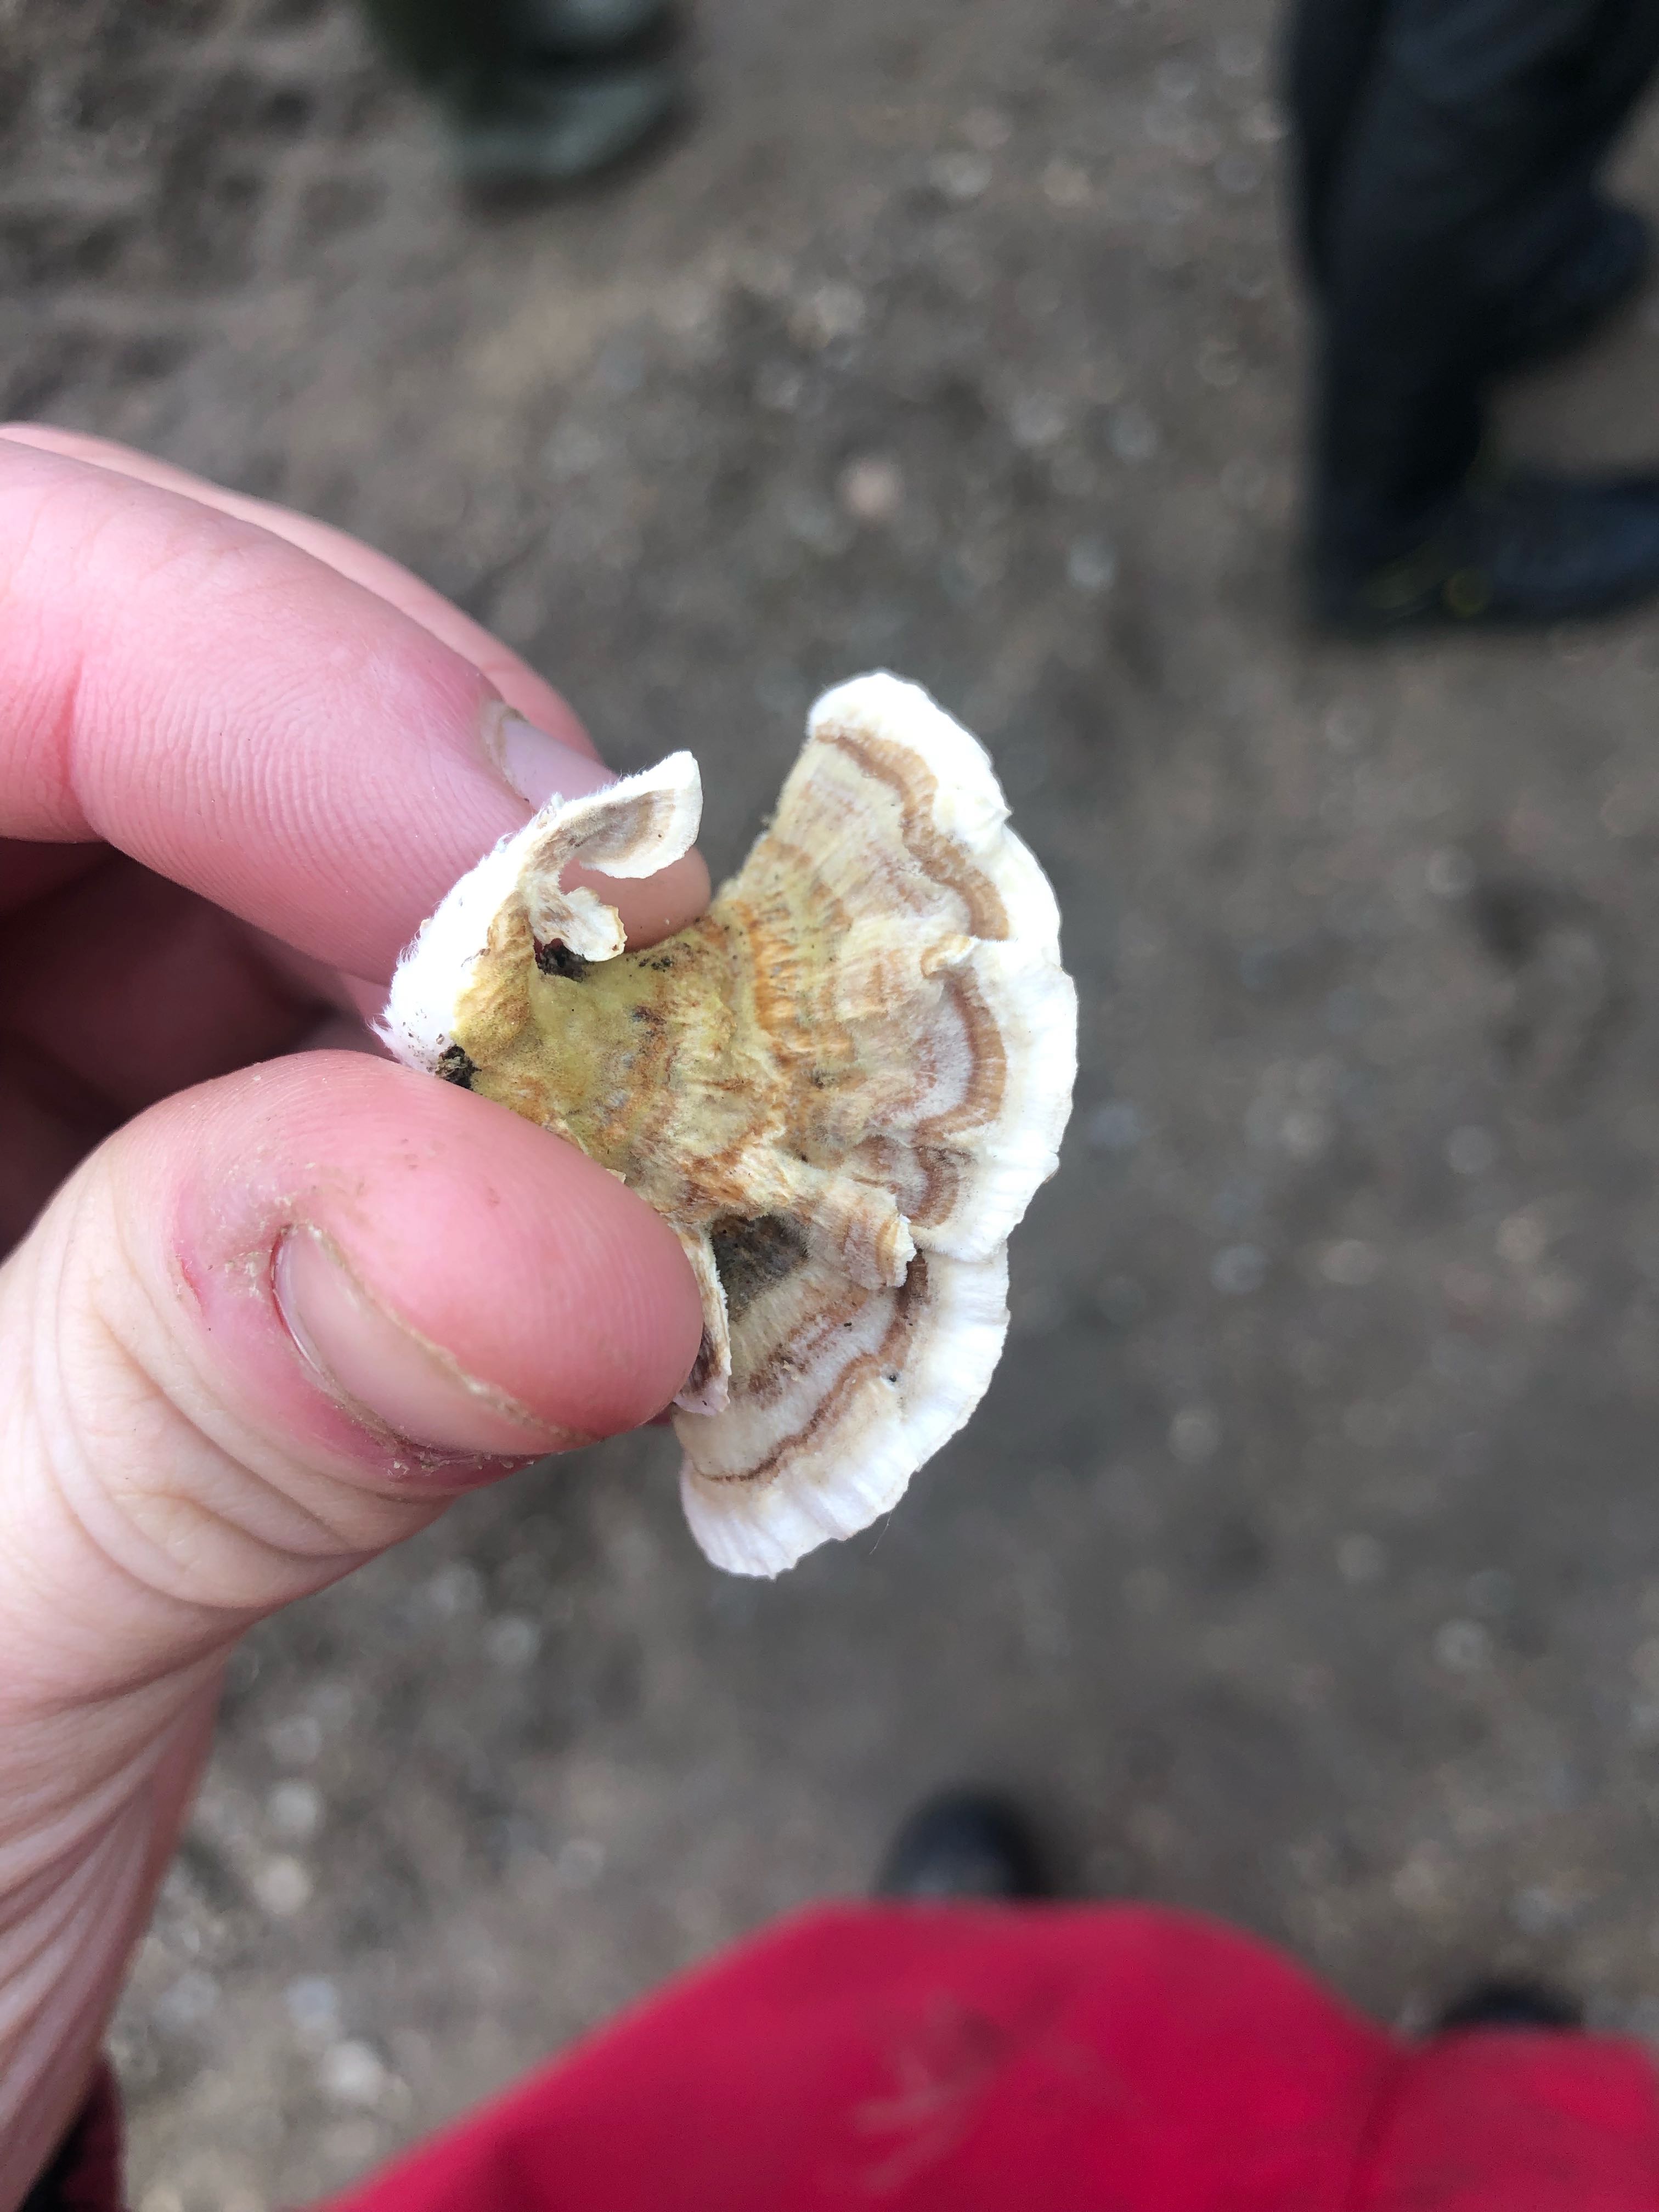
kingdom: Fungi
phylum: Basidiomycota
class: Agaricomycetes
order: Polyporales
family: Polyporaceae
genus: Trametes
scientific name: Trametes versicolor
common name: broget læderporesvamp
